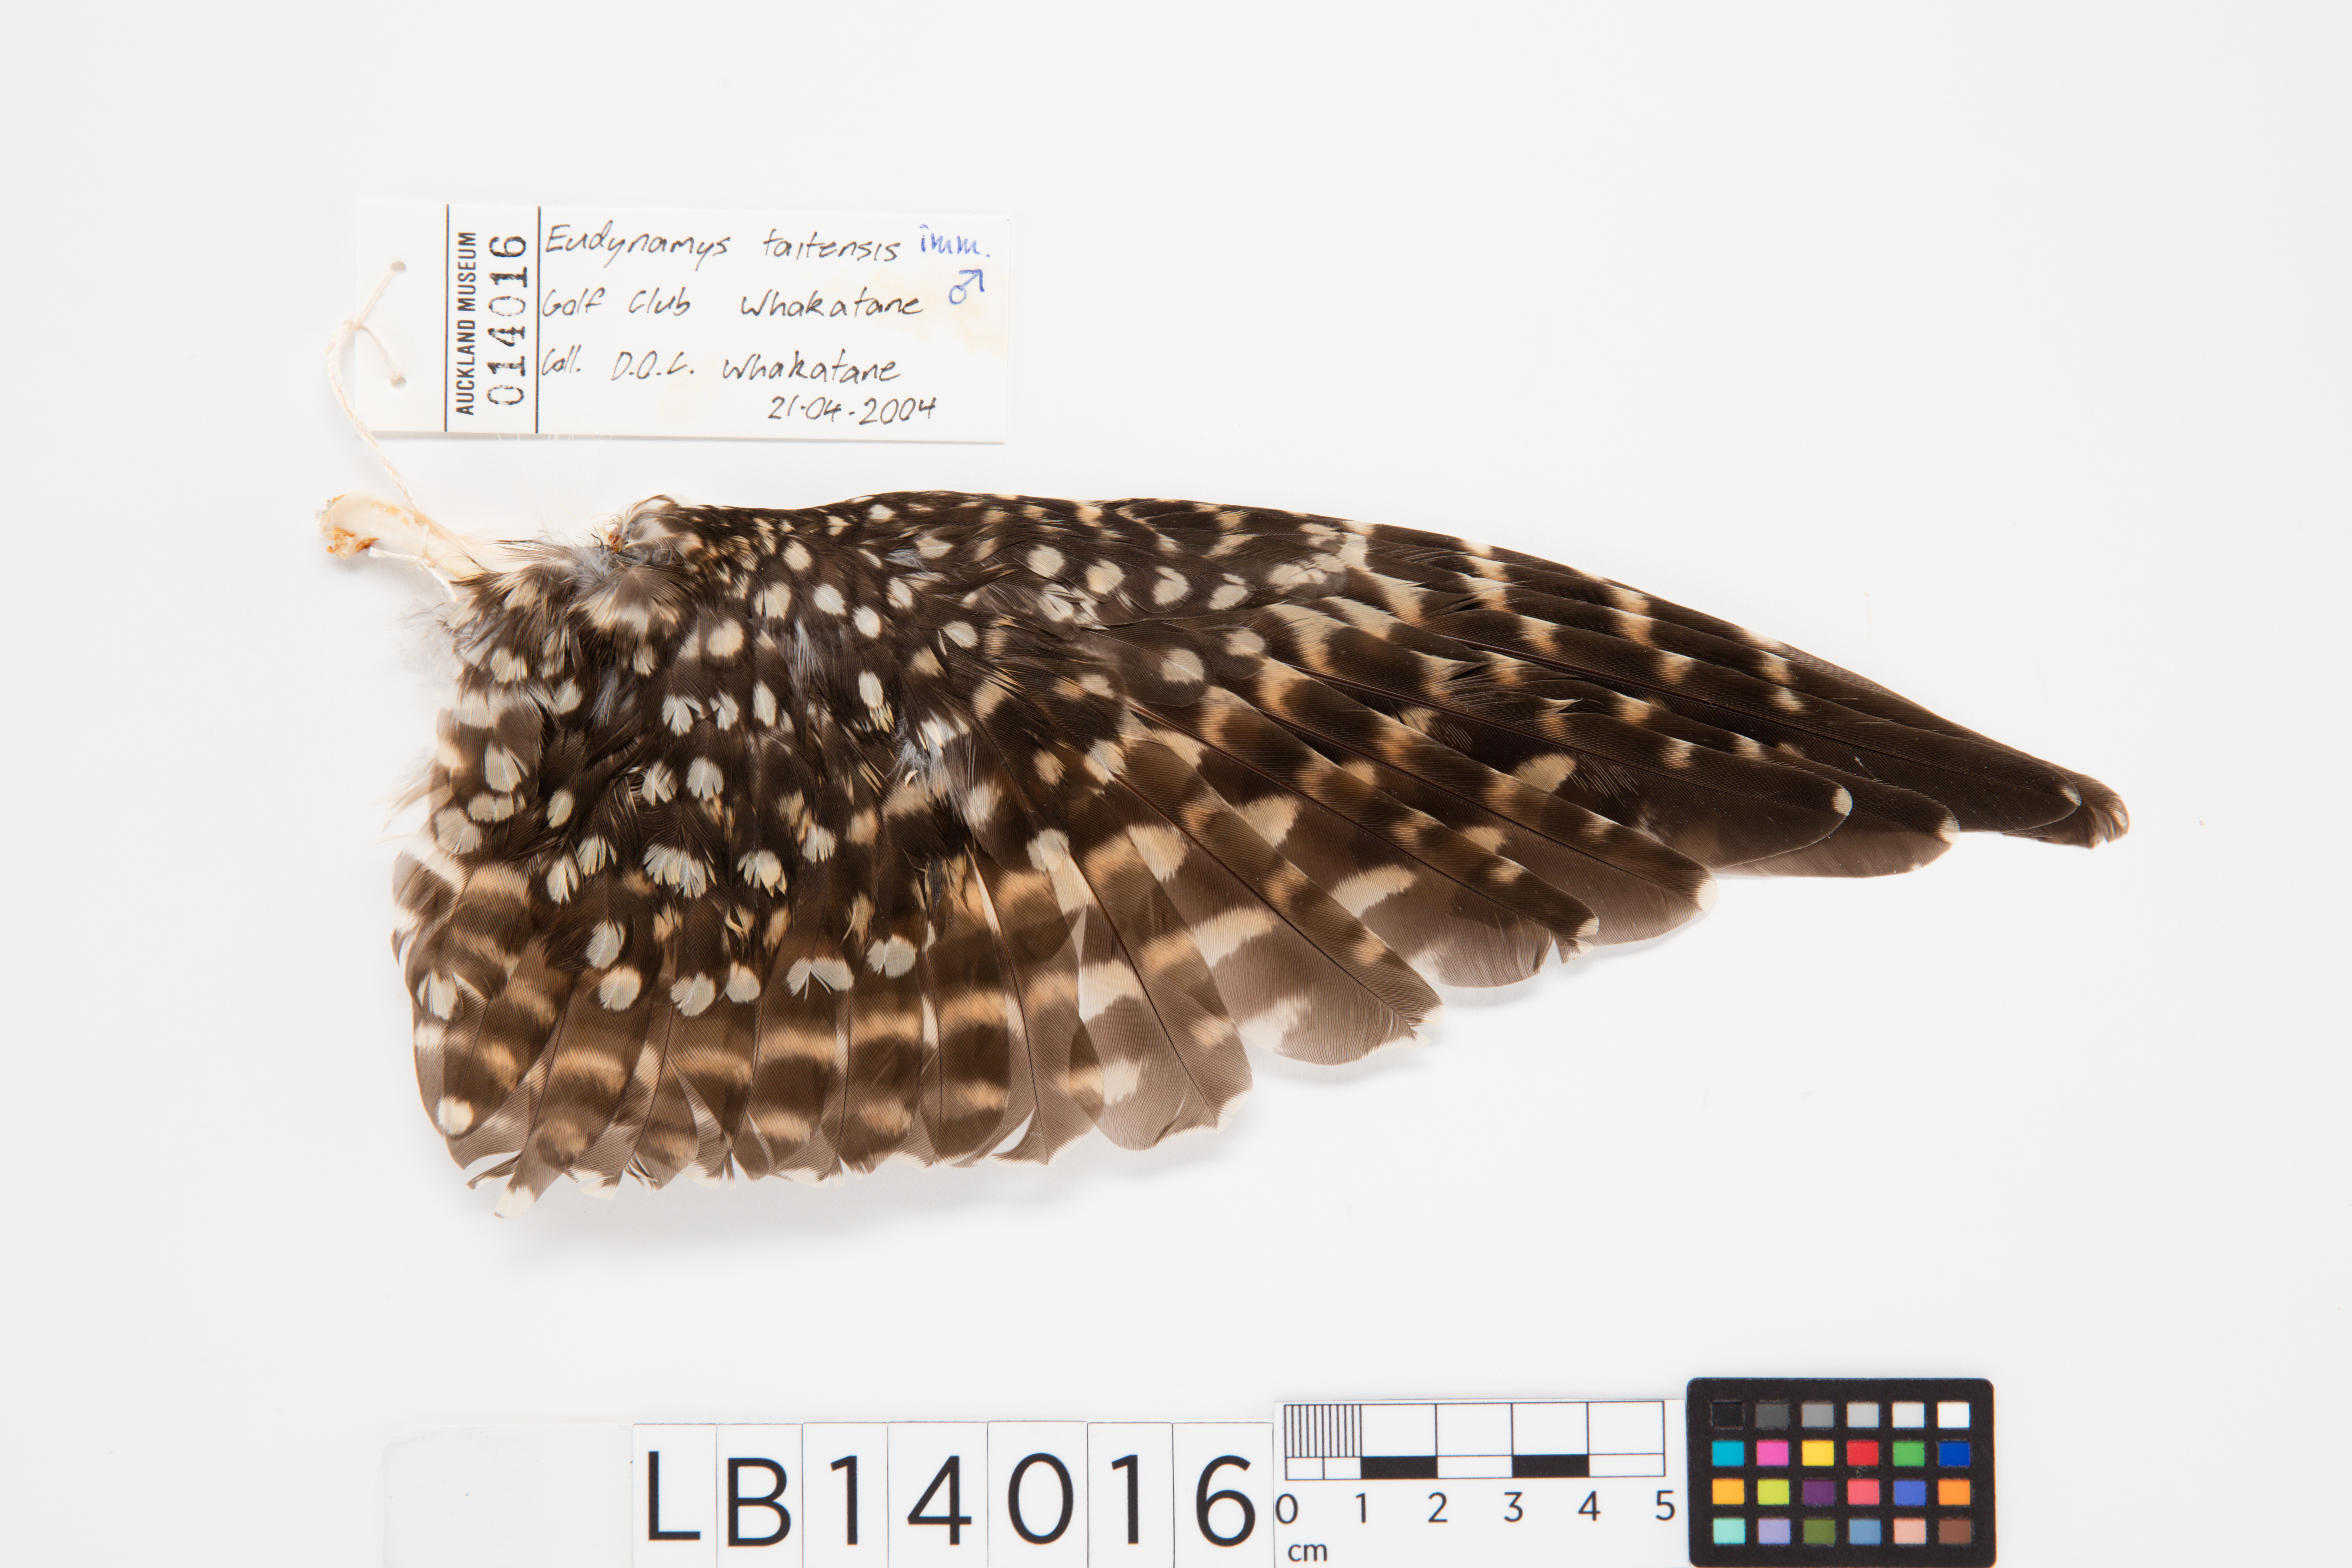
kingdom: Animalia
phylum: Chordata
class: Aves
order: Cuculiformes
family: Cuculidae
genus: Urodynamis
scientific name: Urodynamis taitensis
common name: Long-tailed koel
